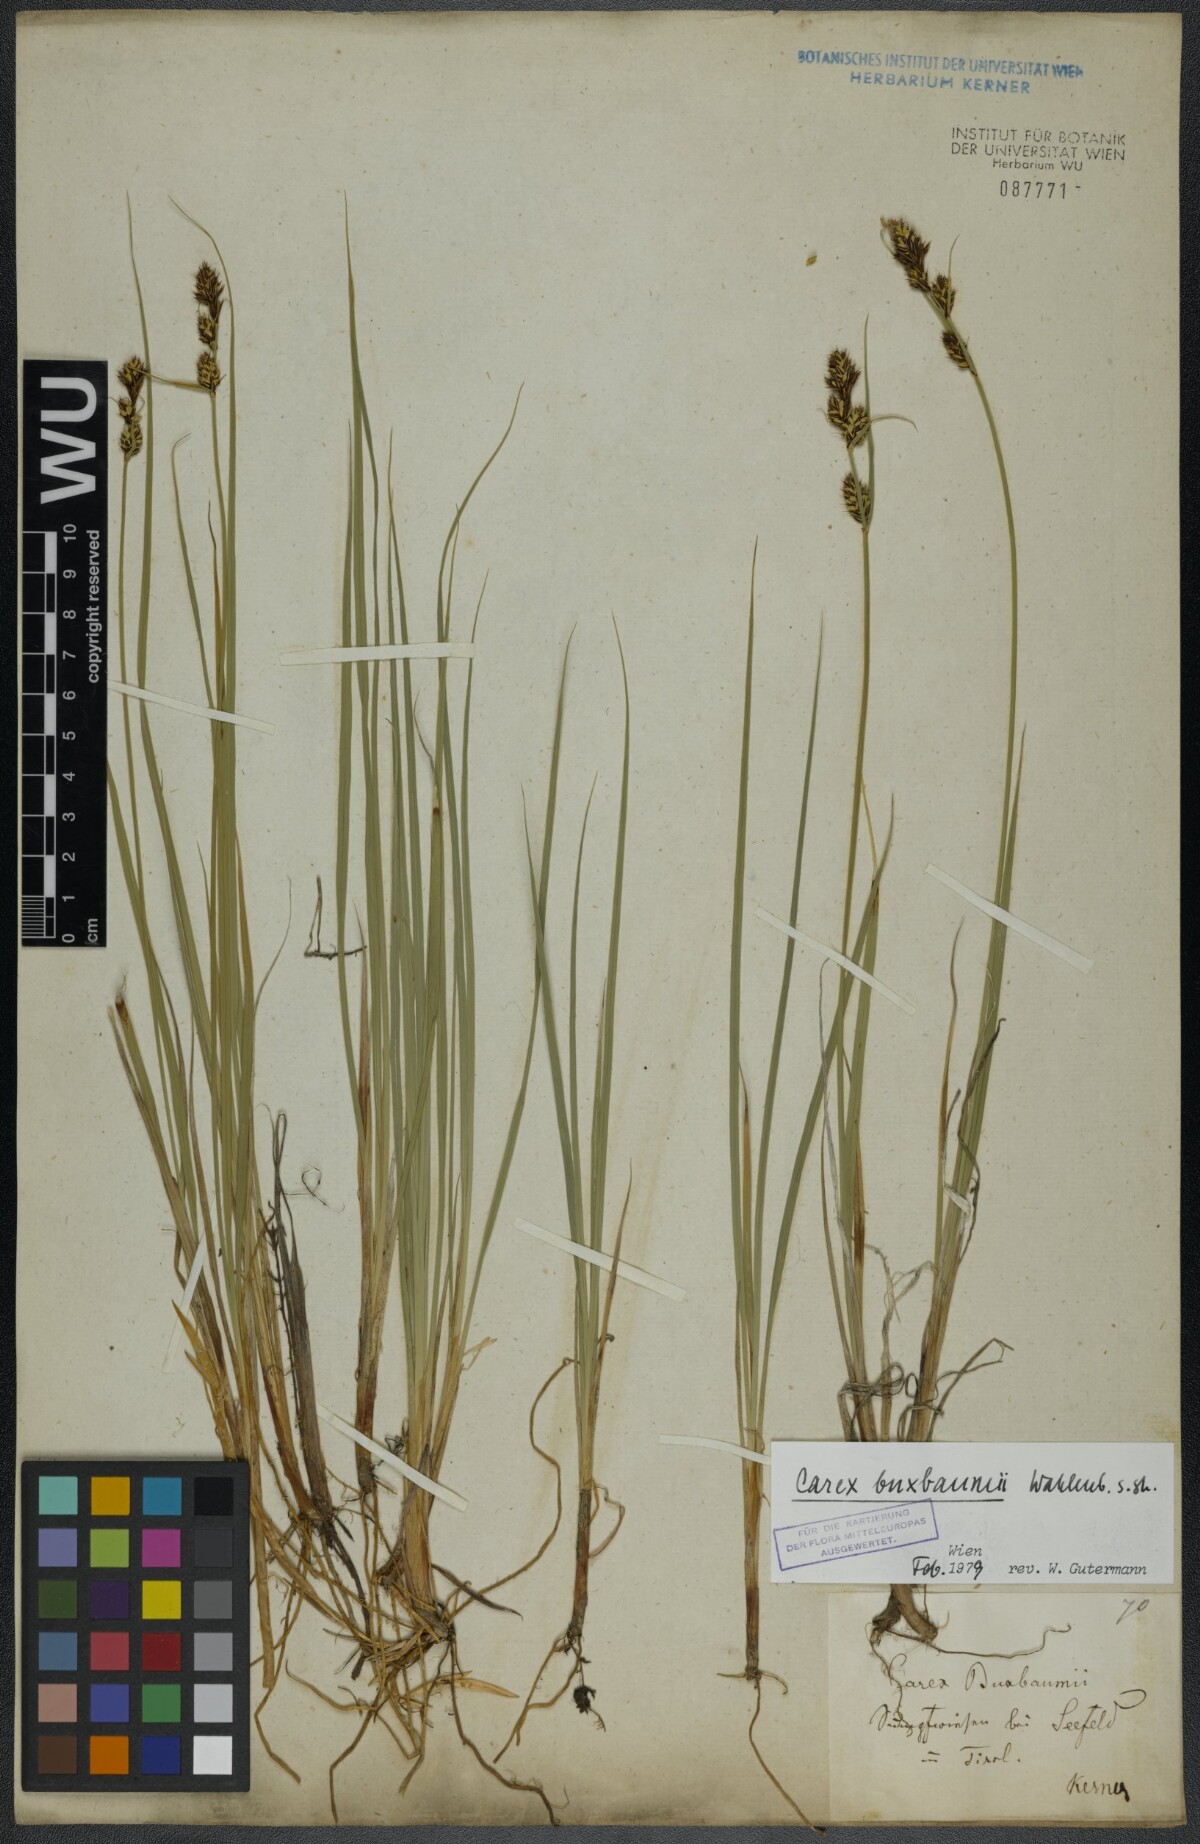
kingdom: Plantae
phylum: Tracheophyta
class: Liliopsida
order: Poales
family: Cyperaceae
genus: Carex
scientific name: Carex buxbaumii
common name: Club sedge
